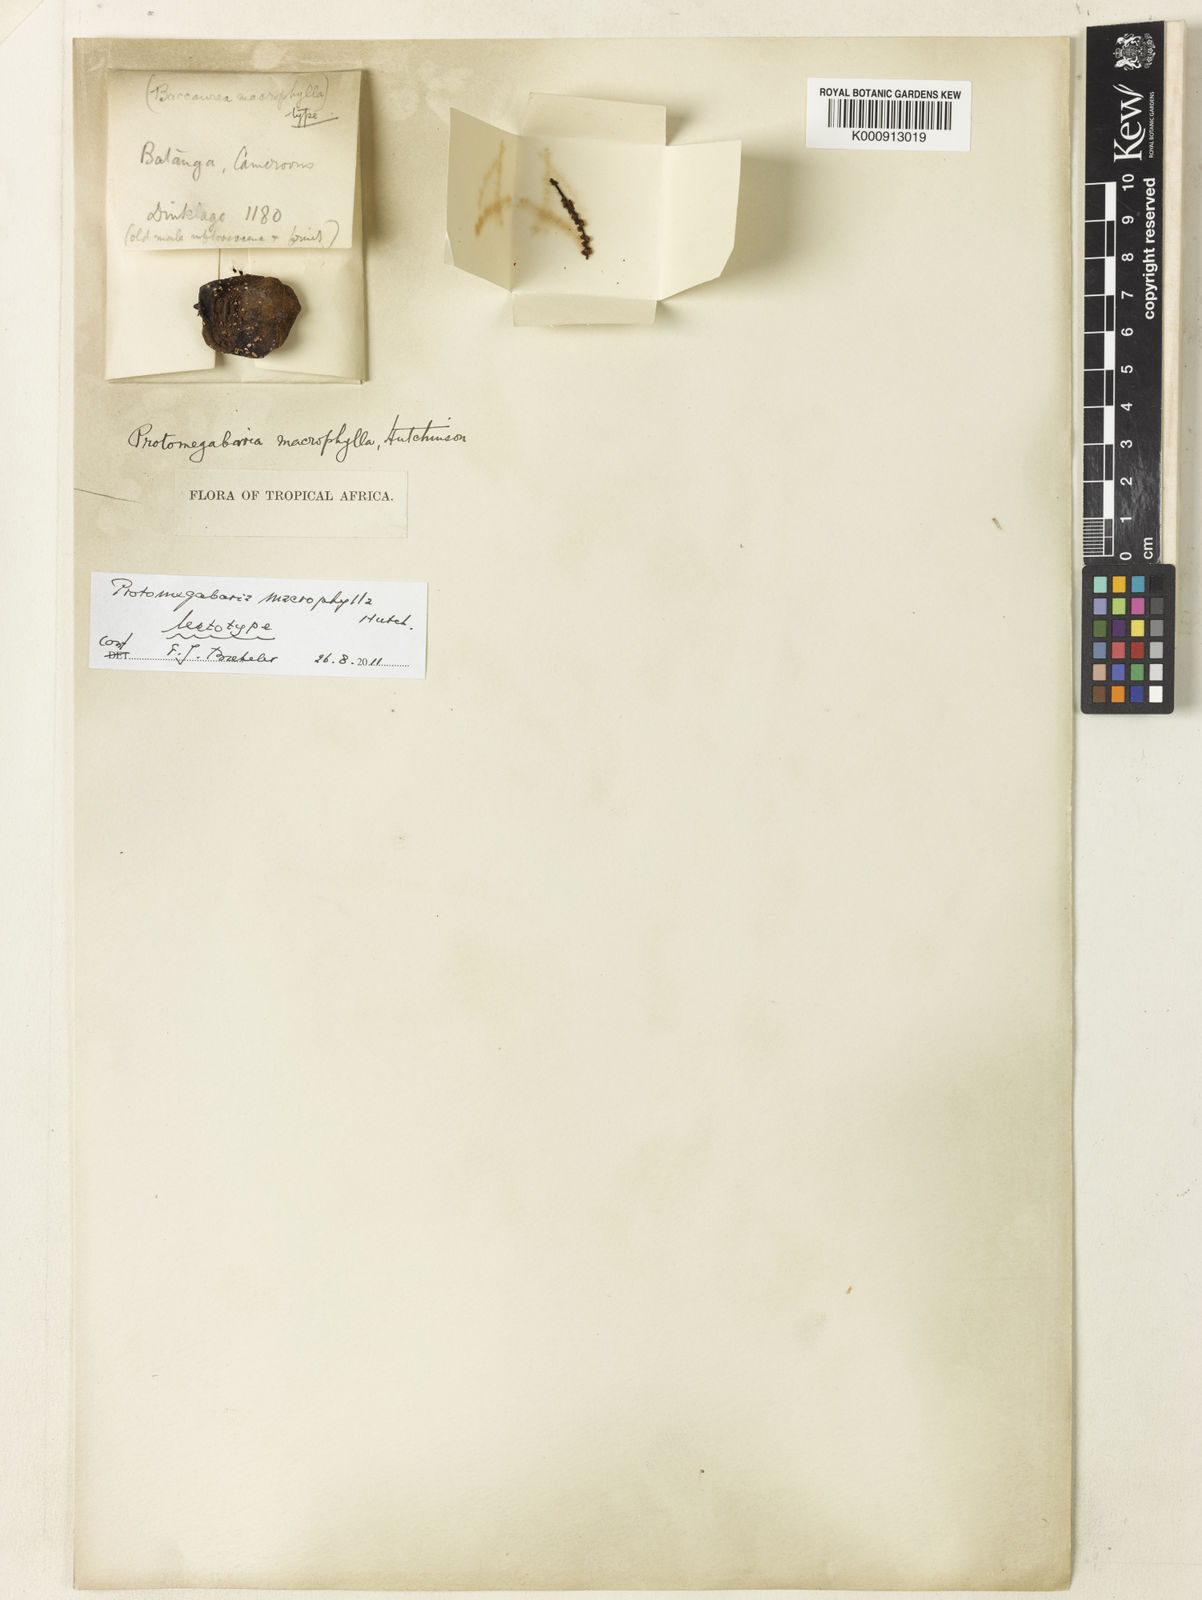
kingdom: Plantae
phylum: Tracheophyta
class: Magnoliopsida
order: Malpighiales
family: Phyllanthaceae
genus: Protomegabaria
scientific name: Protomegabaria macrophylla
